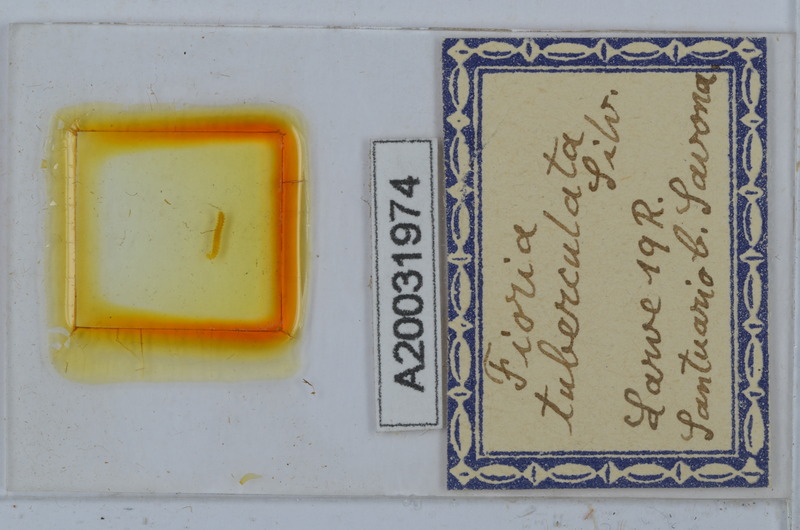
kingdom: Animalia
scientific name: Animalia
